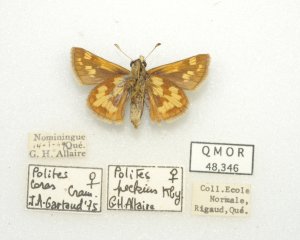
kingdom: Animalia
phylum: Arthropoda
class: Insecta
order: Lepidoptera
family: Hesperiidae
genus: Polites
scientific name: Polites coras
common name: Peck's Skipper
